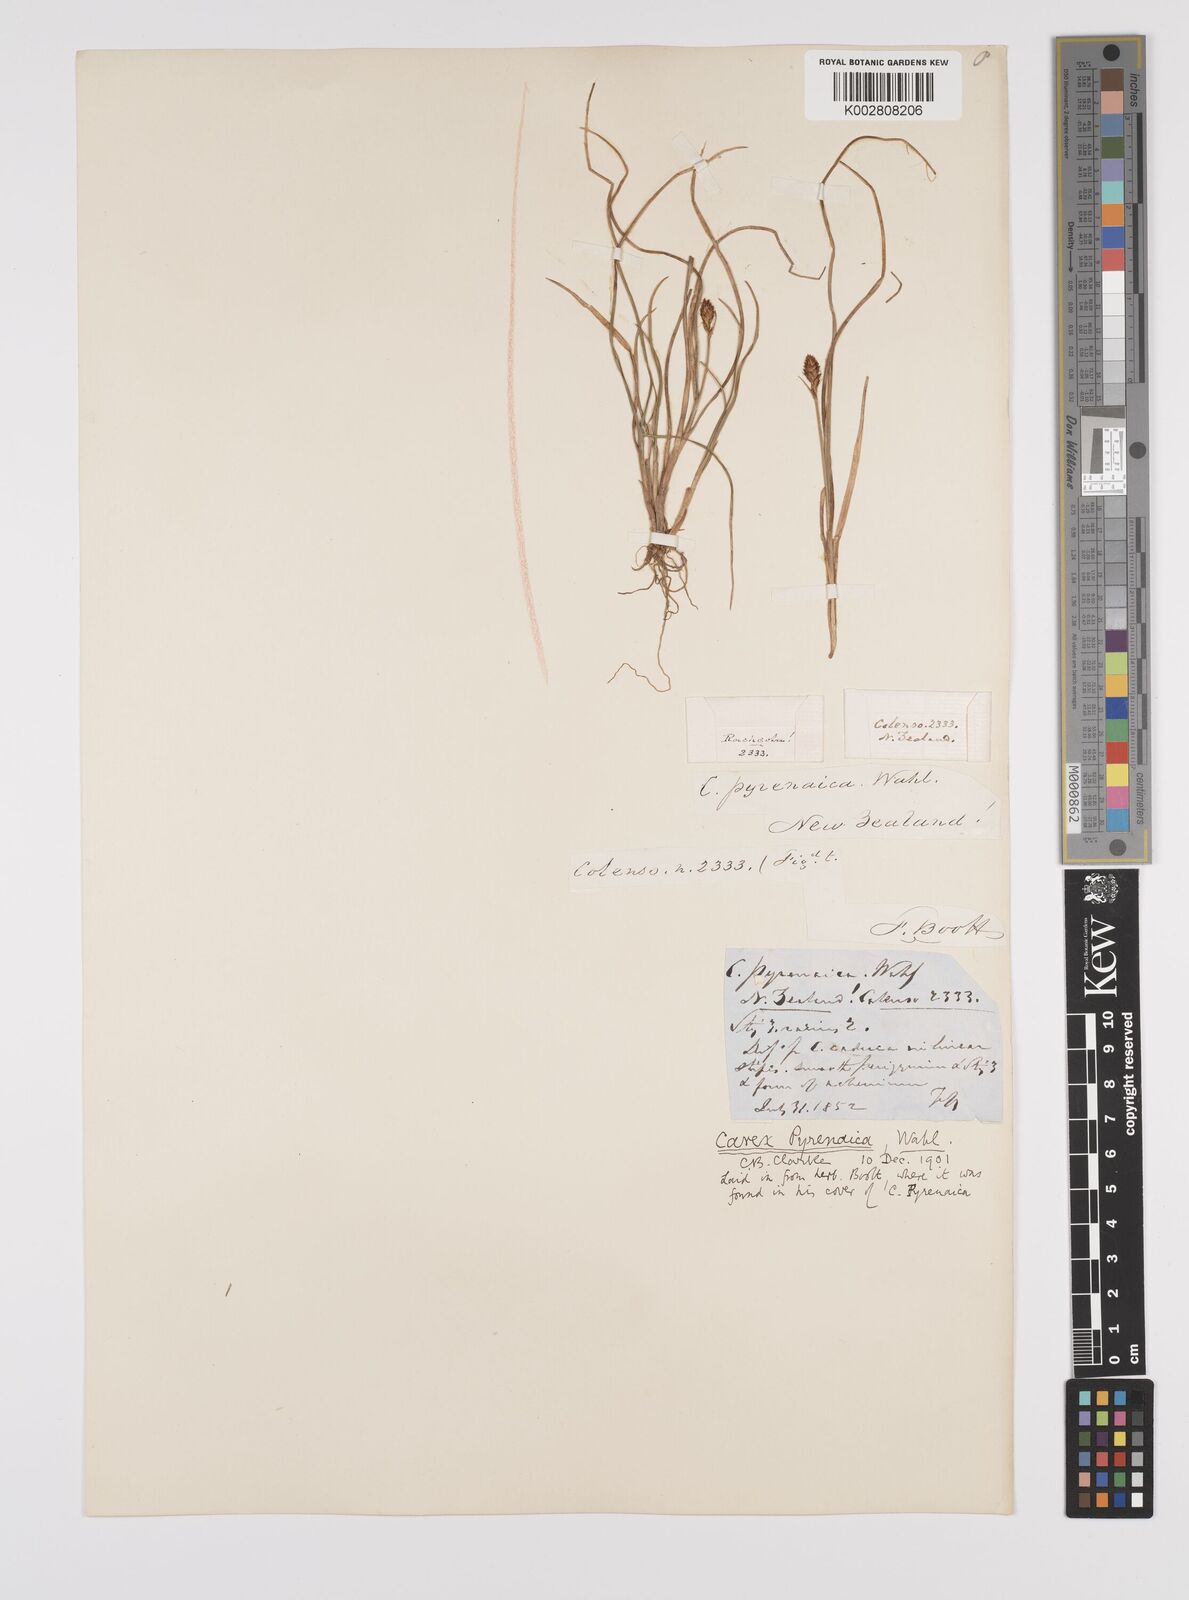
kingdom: Plantae
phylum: Tracheophyta
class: Liliopsida
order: Poales
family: Cyperaceae
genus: Carex
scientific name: Carex pyrenaica
